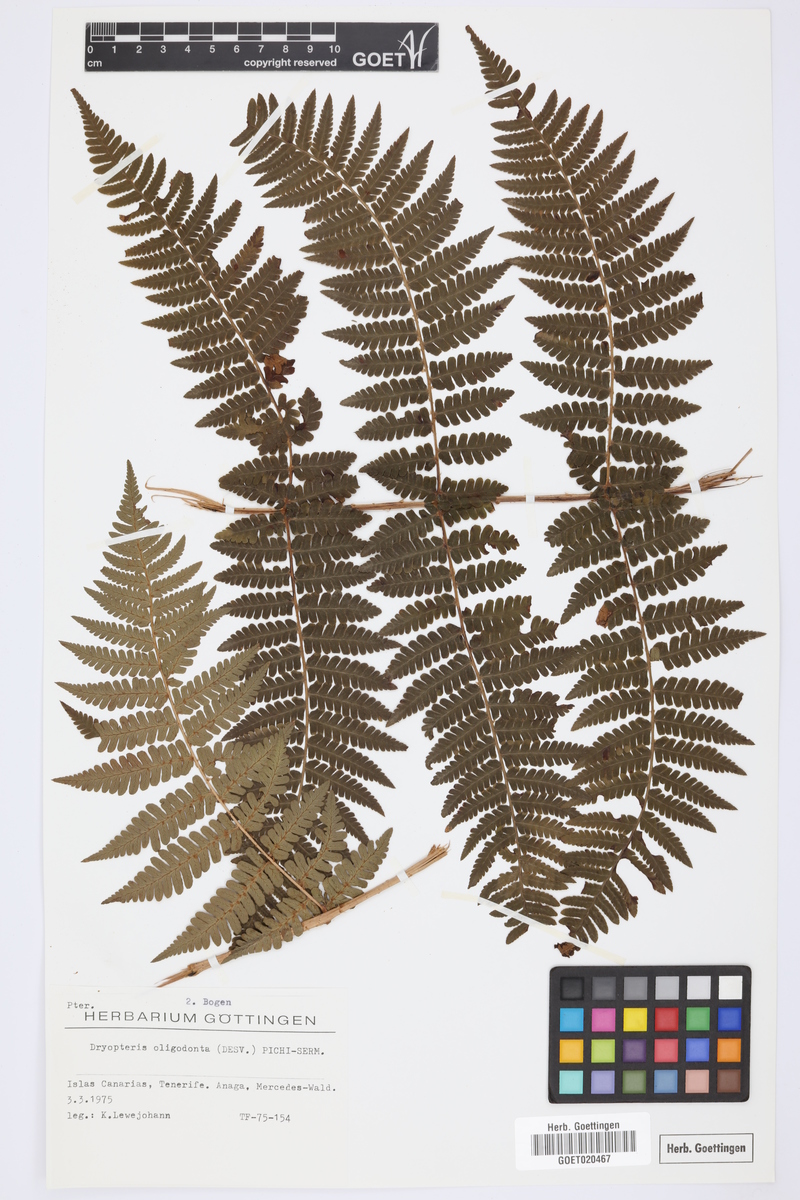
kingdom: Plantae
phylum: Tracheophyta
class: Polypodiopsida
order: Polypodiales
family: Dryopteridaceae
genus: Dryopteris
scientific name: Dryopteris oligodonta
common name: Canarian male-fern
